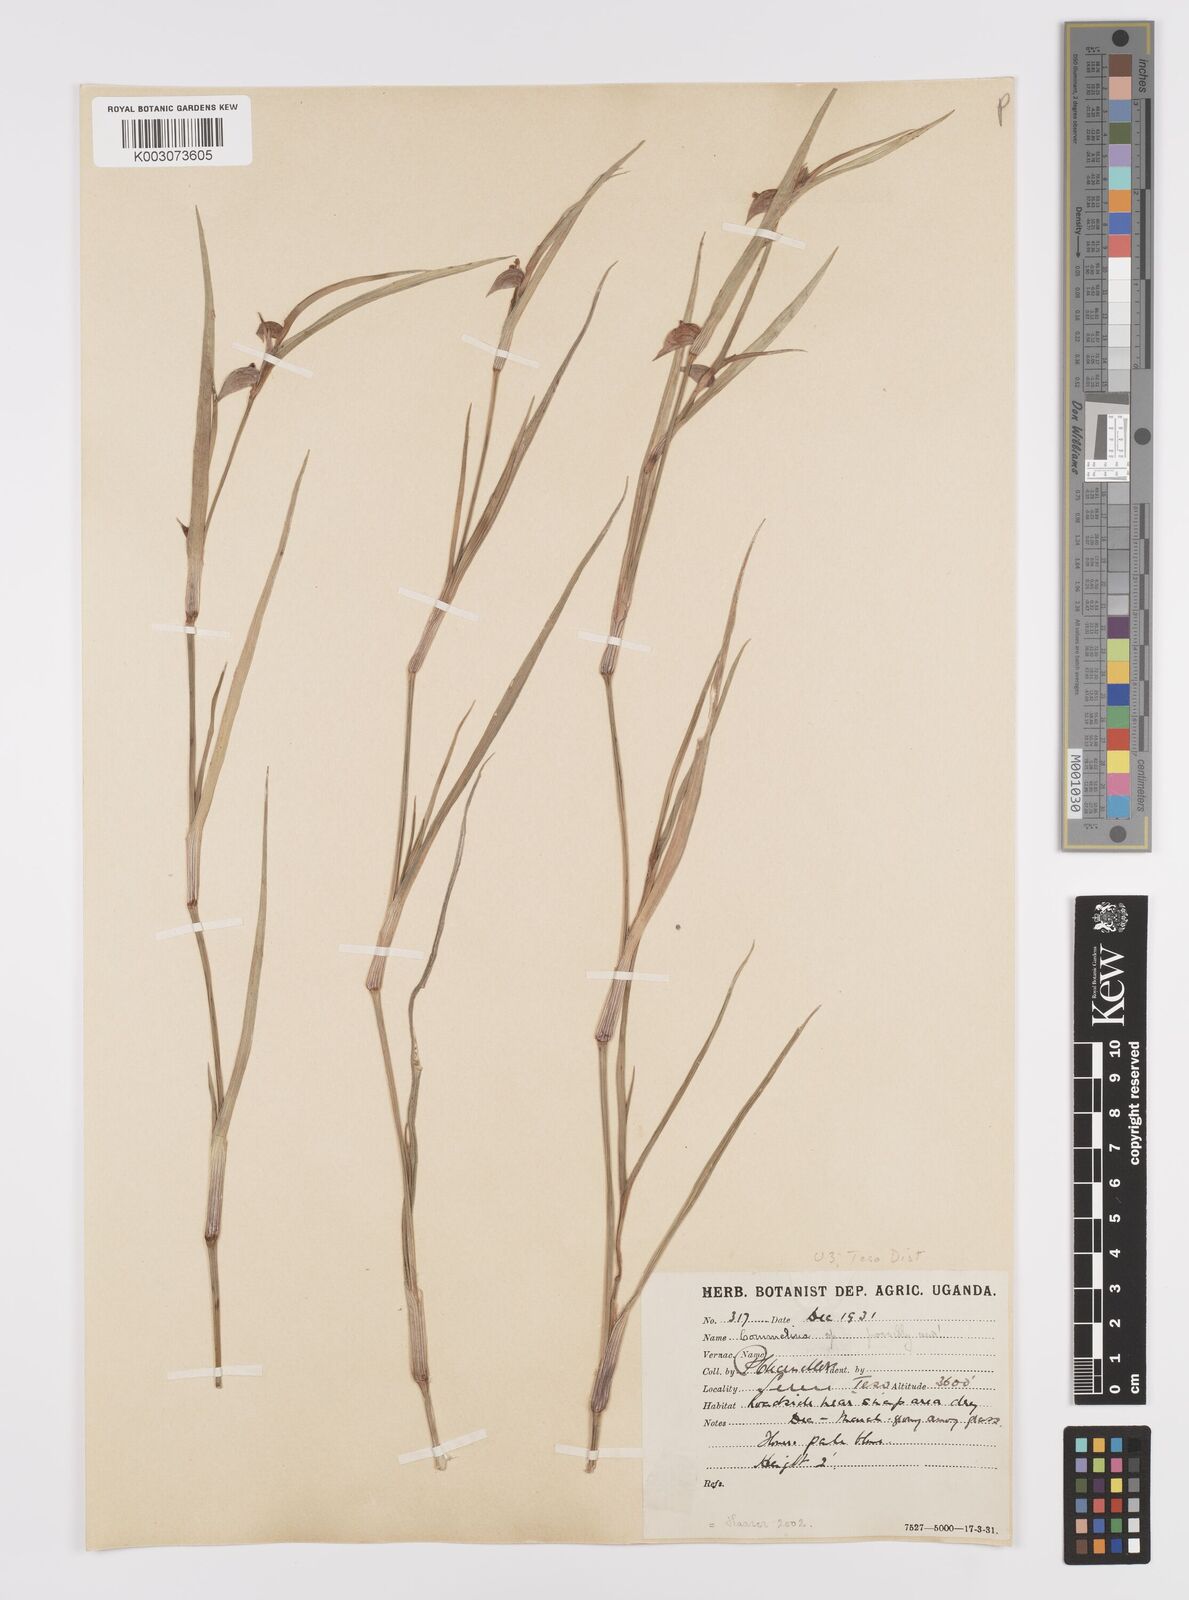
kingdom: Plantae
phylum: Tracheophyta
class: Liliopsida
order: Commelinales
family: Commelinaceae
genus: Commelina
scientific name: Commelina purpurea
